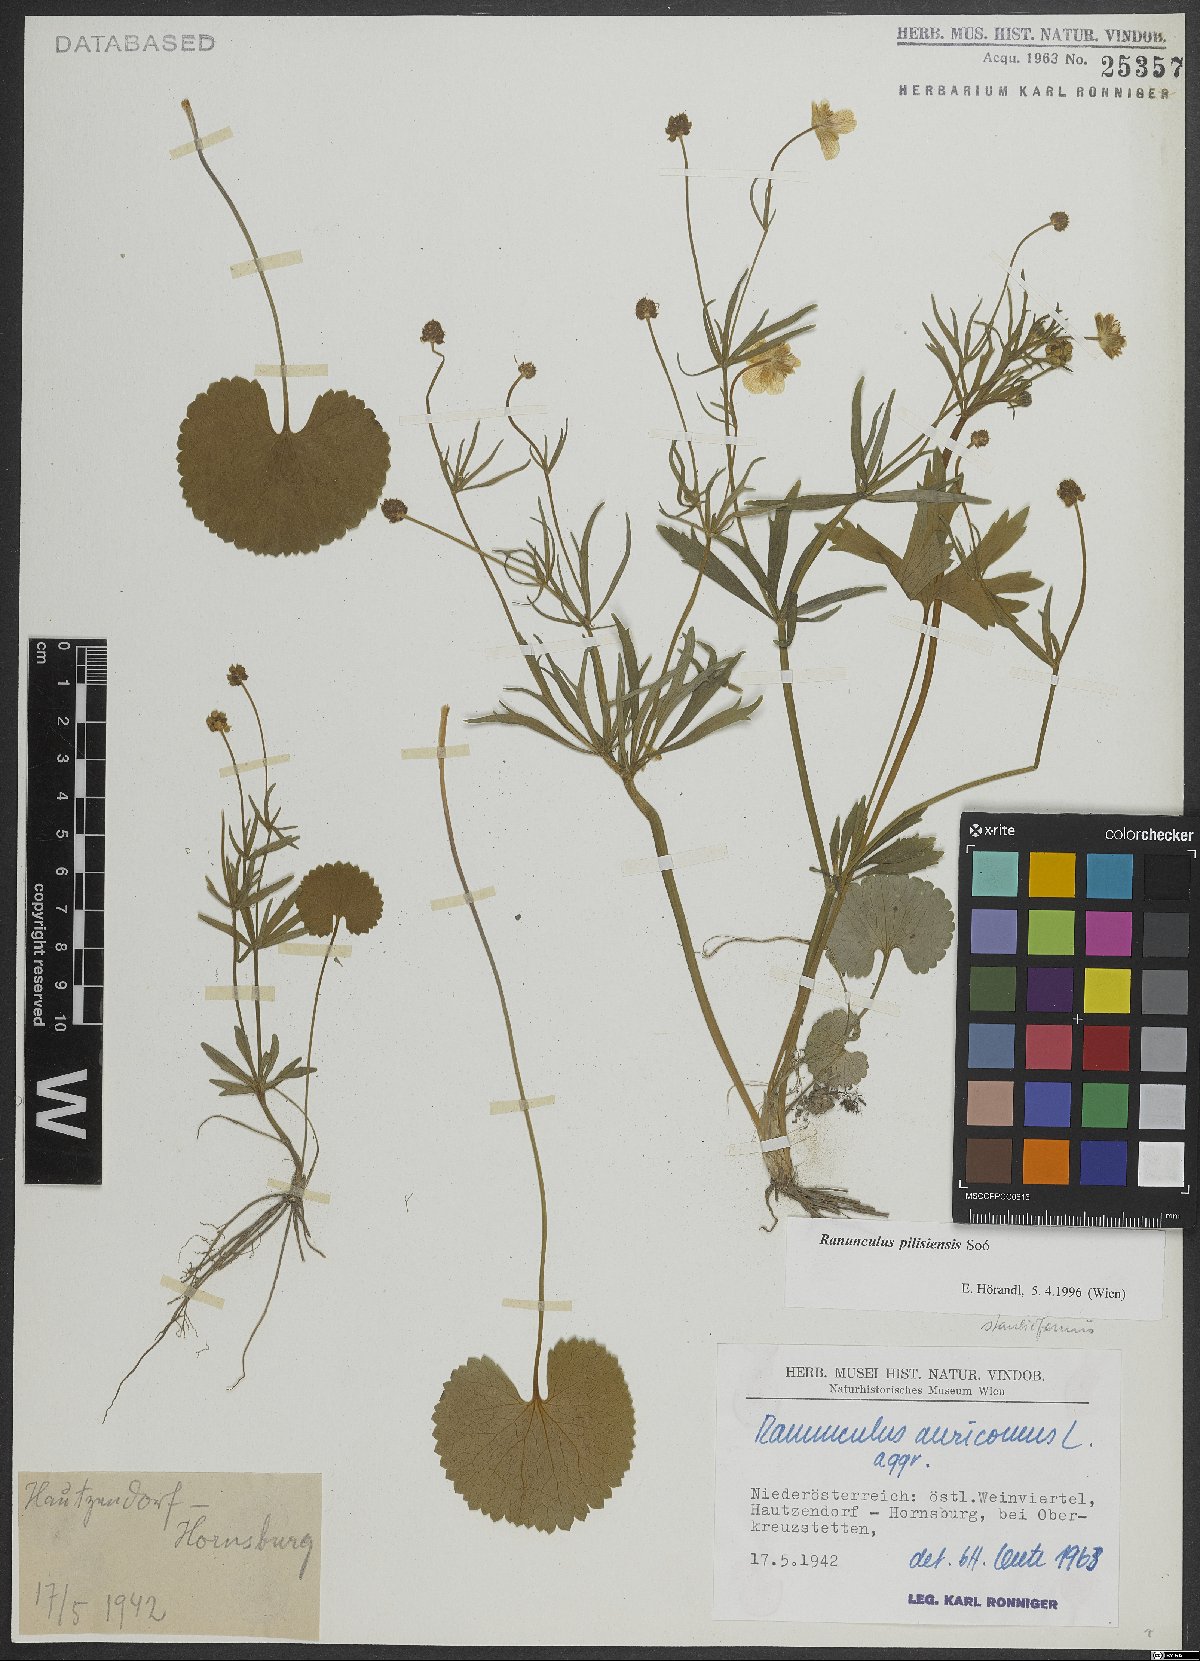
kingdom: Plantae
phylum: Tracheophyta
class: Magnoliopsida
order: Ranunculales
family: Ranunculaceae
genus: Ranunculus
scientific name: Ranunculus pilisiensis
